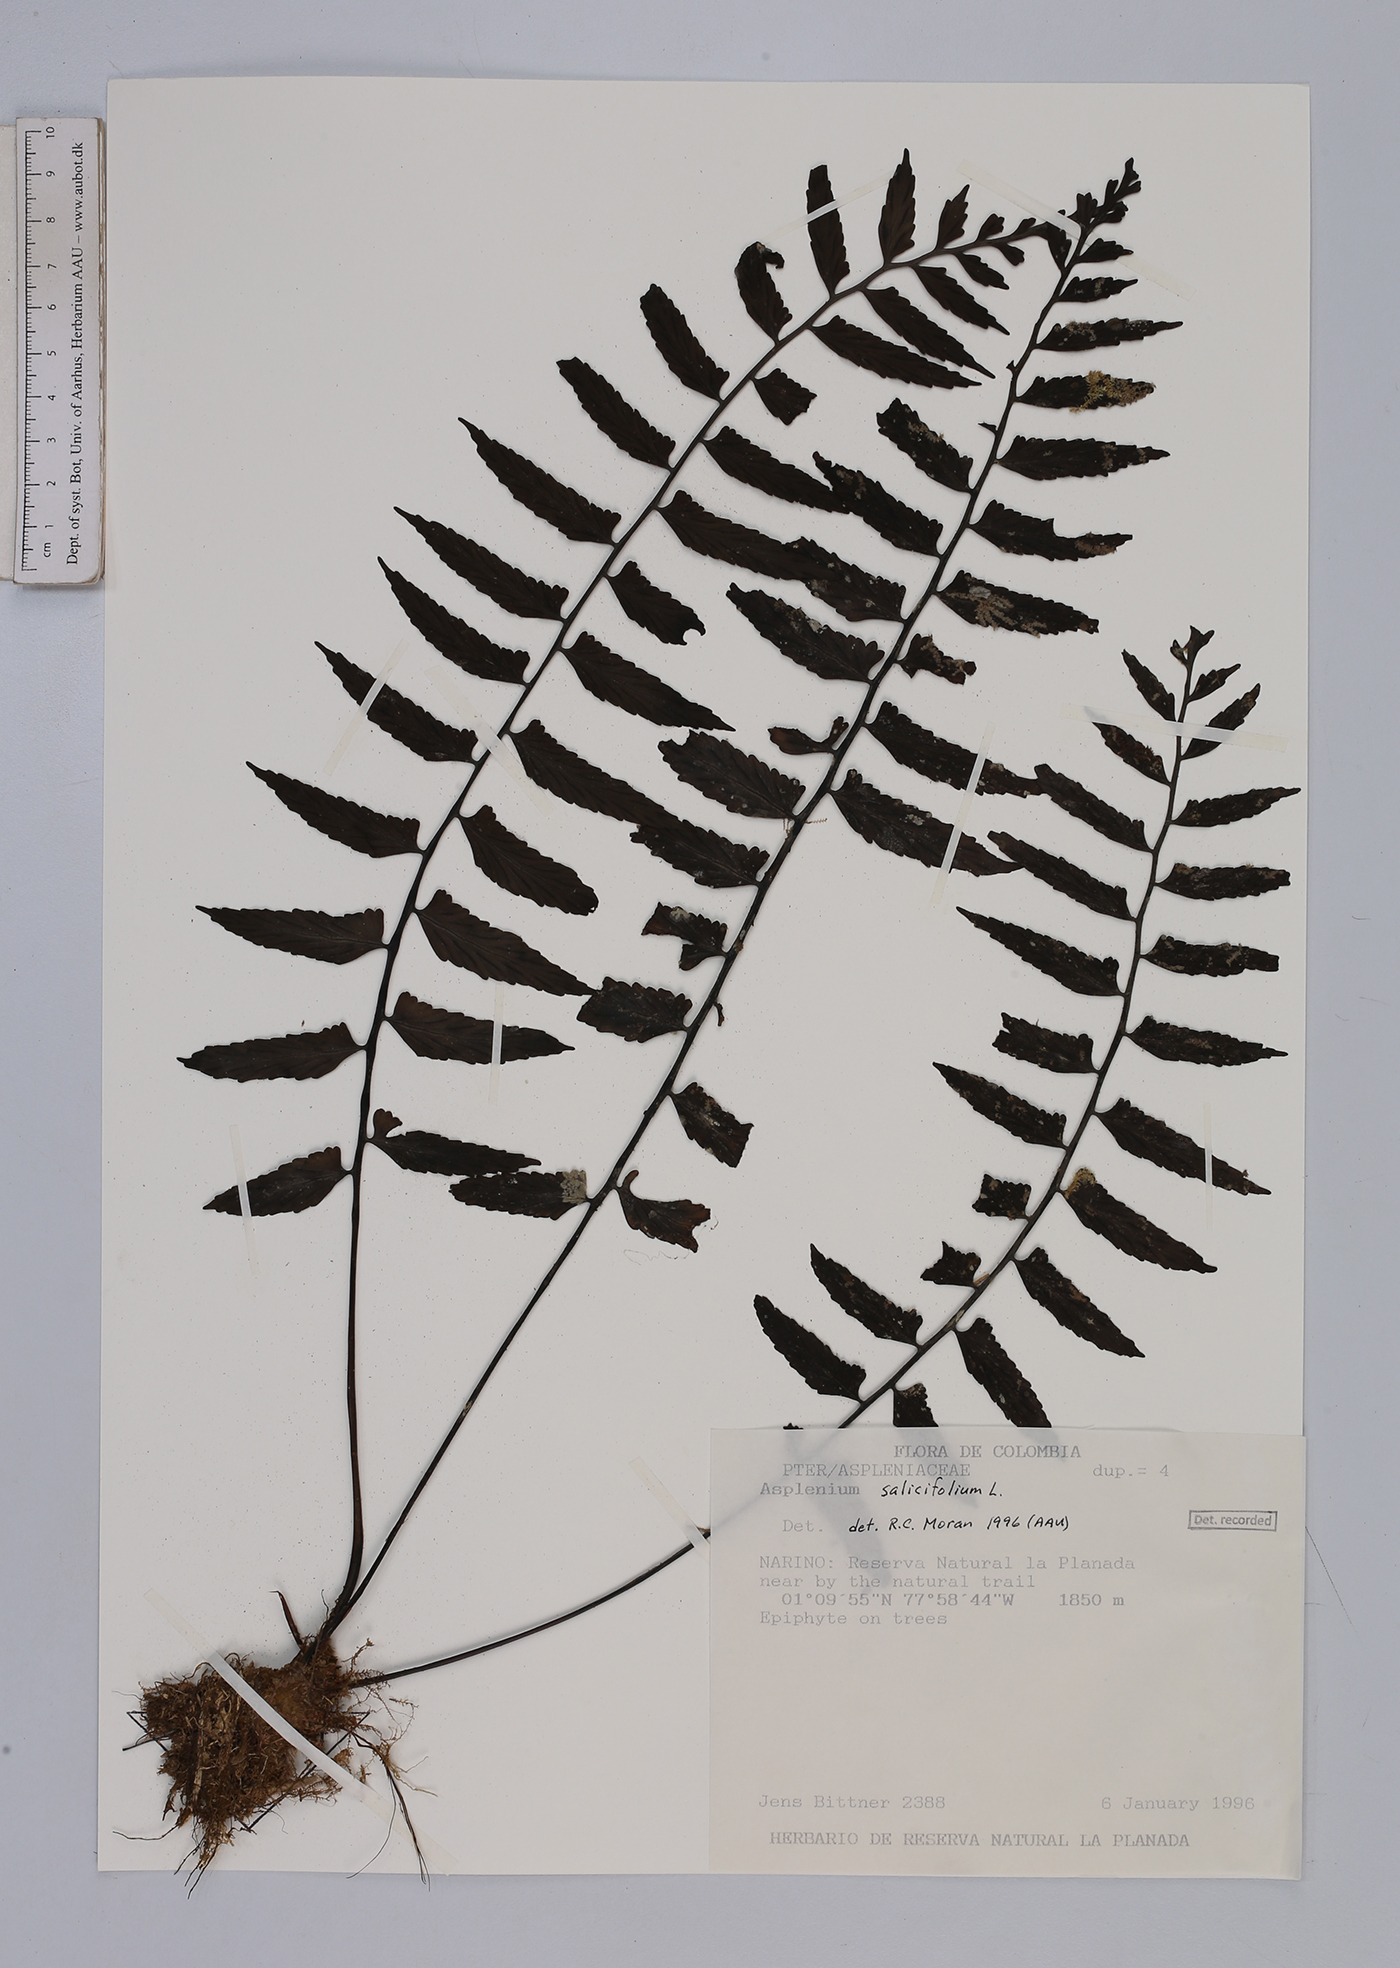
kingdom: Plantae
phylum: Tracheophyta
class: Polypodiopsida
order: Polypodiales
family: Aspleniaceae
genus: Asplenium
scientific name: Asplenium salicifolium
